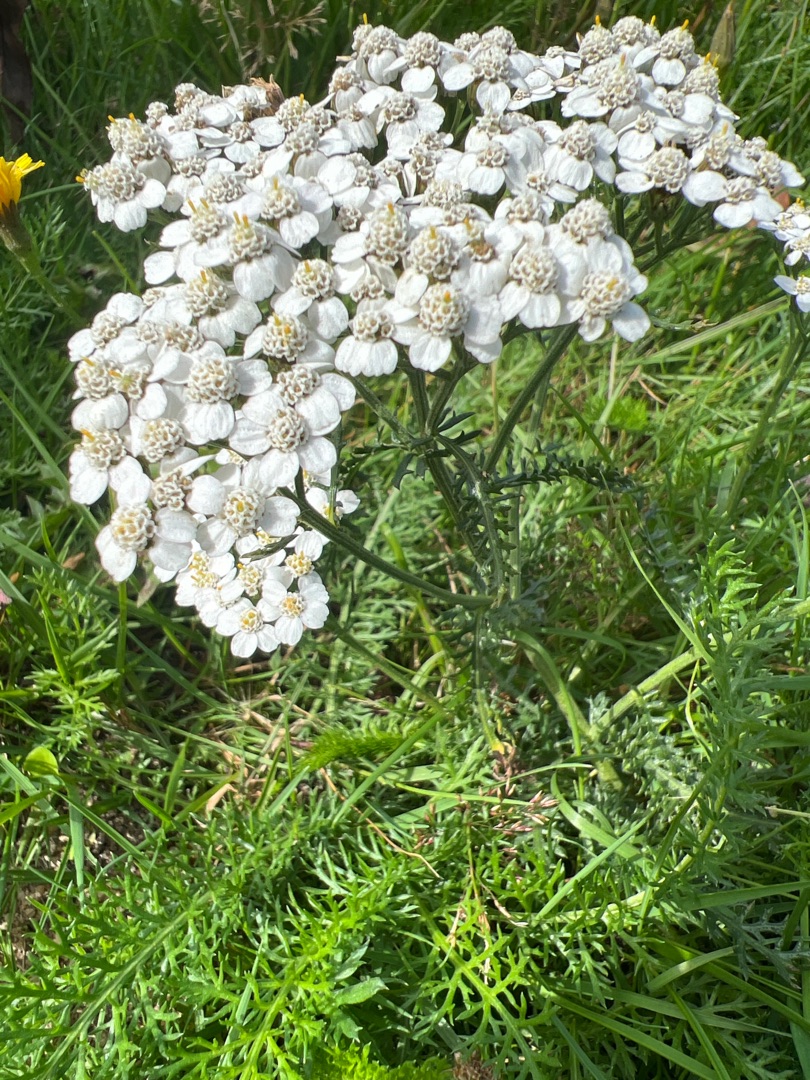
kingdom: Plantae
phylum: Tracheophyta
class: Magnoliopsida
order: Asterales
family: Asteraceae
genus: Achillea
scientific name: Achillea millefolium
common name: Almindelig røllike
